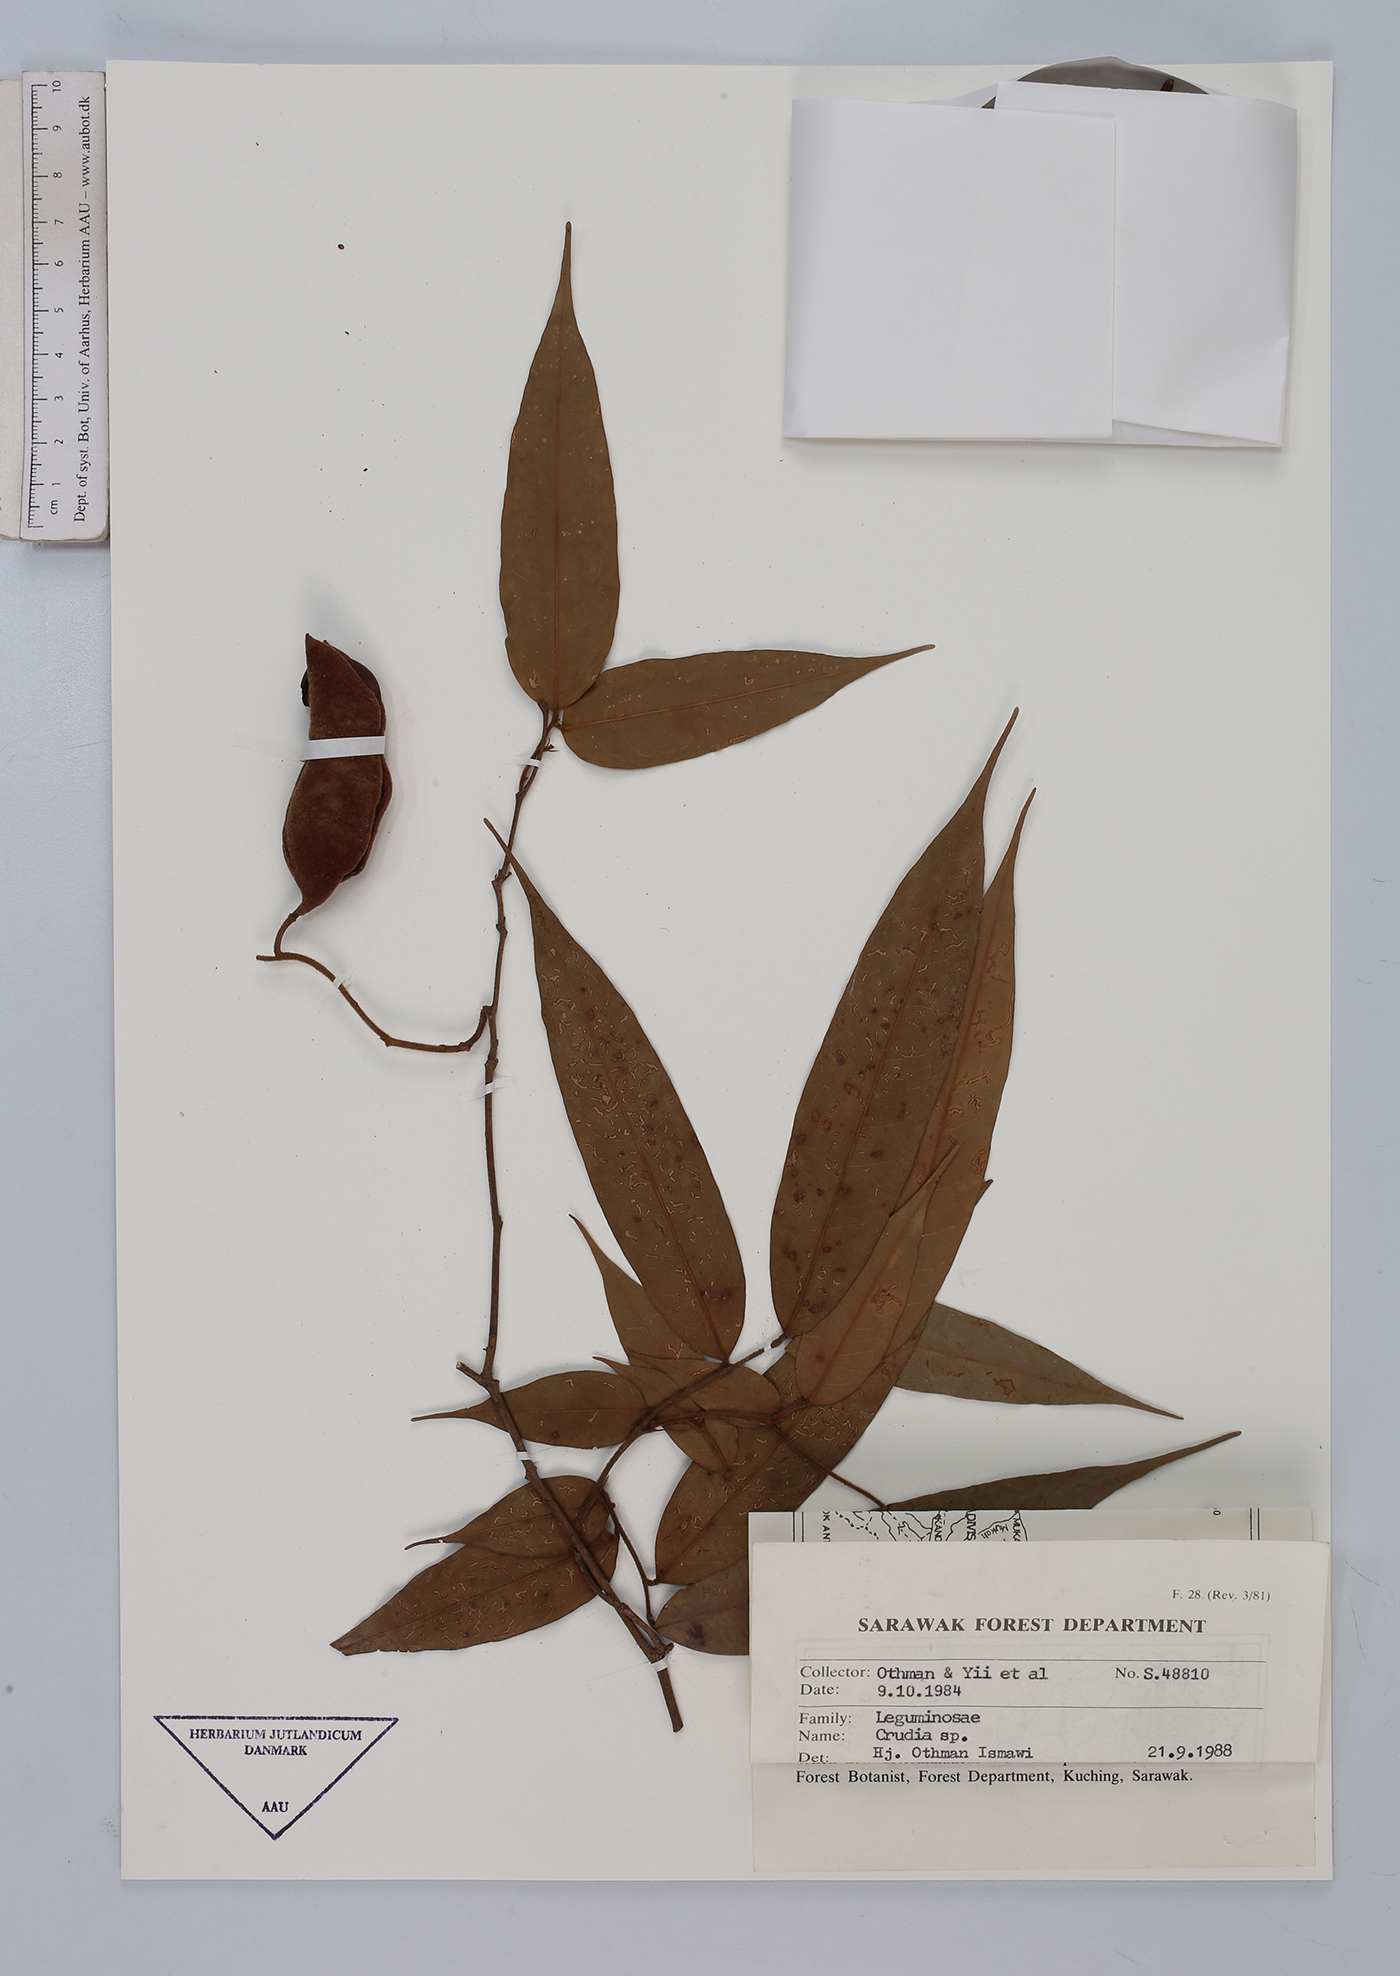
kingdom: Plantae
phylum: Tracheophyta
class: Magnoliopsida
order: Fabales
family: Fabaceae
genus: Crudia
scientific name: Crudia
